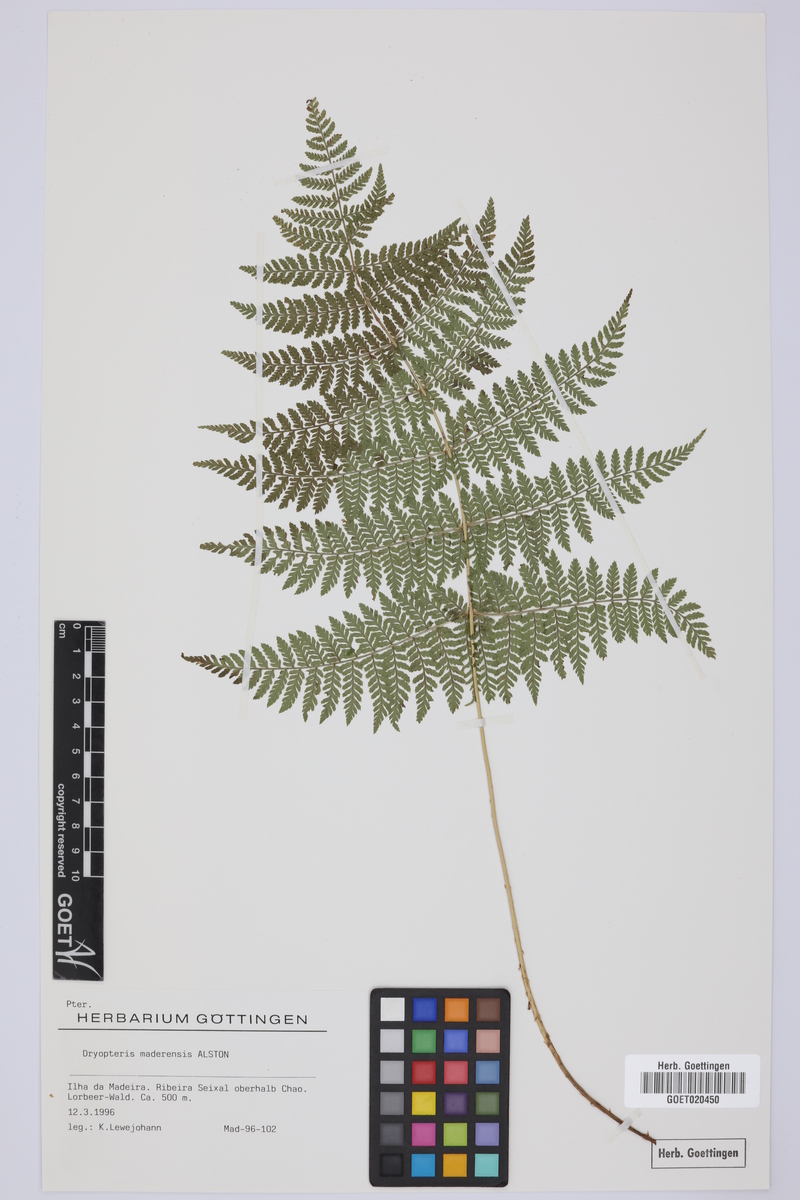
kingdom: Plantae
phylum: Tracheophyta
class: Polypodiopsida
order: Polypodiales
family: Dryopteridaceae
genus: Dryopteris
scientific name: Dryopteris intermedia
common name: Evergreen wood fern
